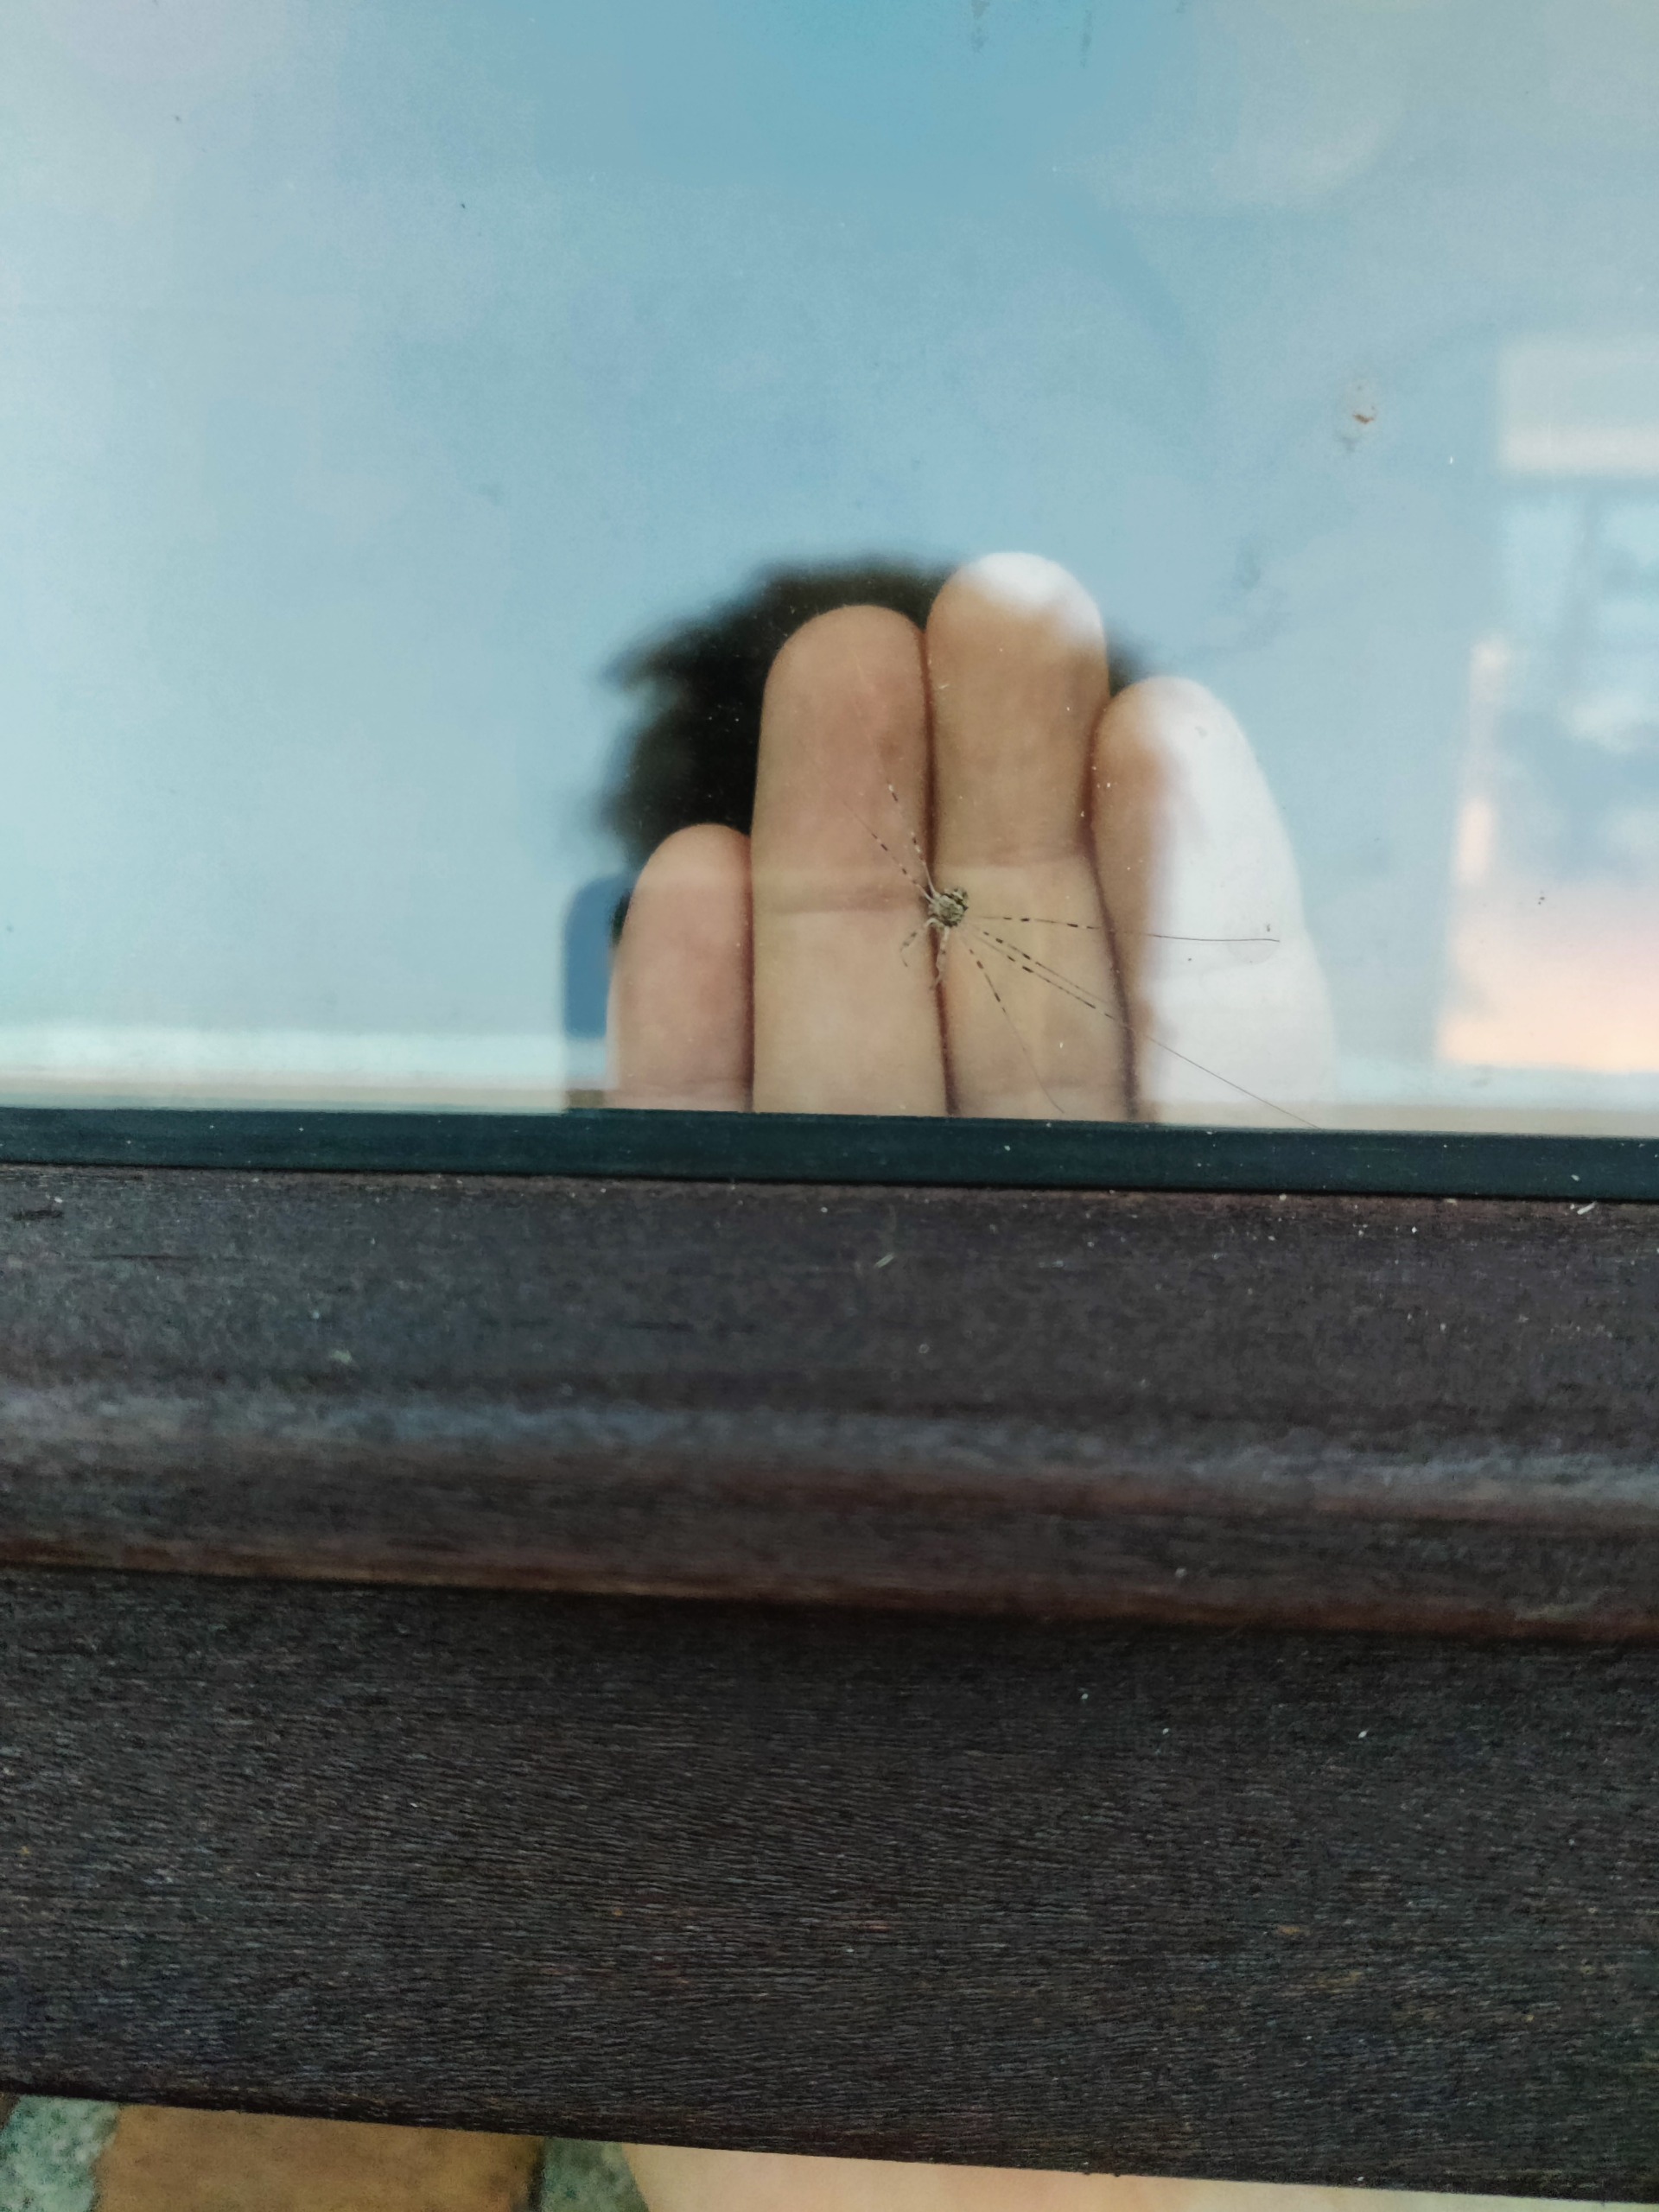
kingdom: Animalia
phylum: Arthropoda
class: Arachnida
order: Opiliones
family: Phalangiidae
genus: Dicranopalpus
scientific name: Dicranopalpus ramosus
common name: Gaffelmejer
